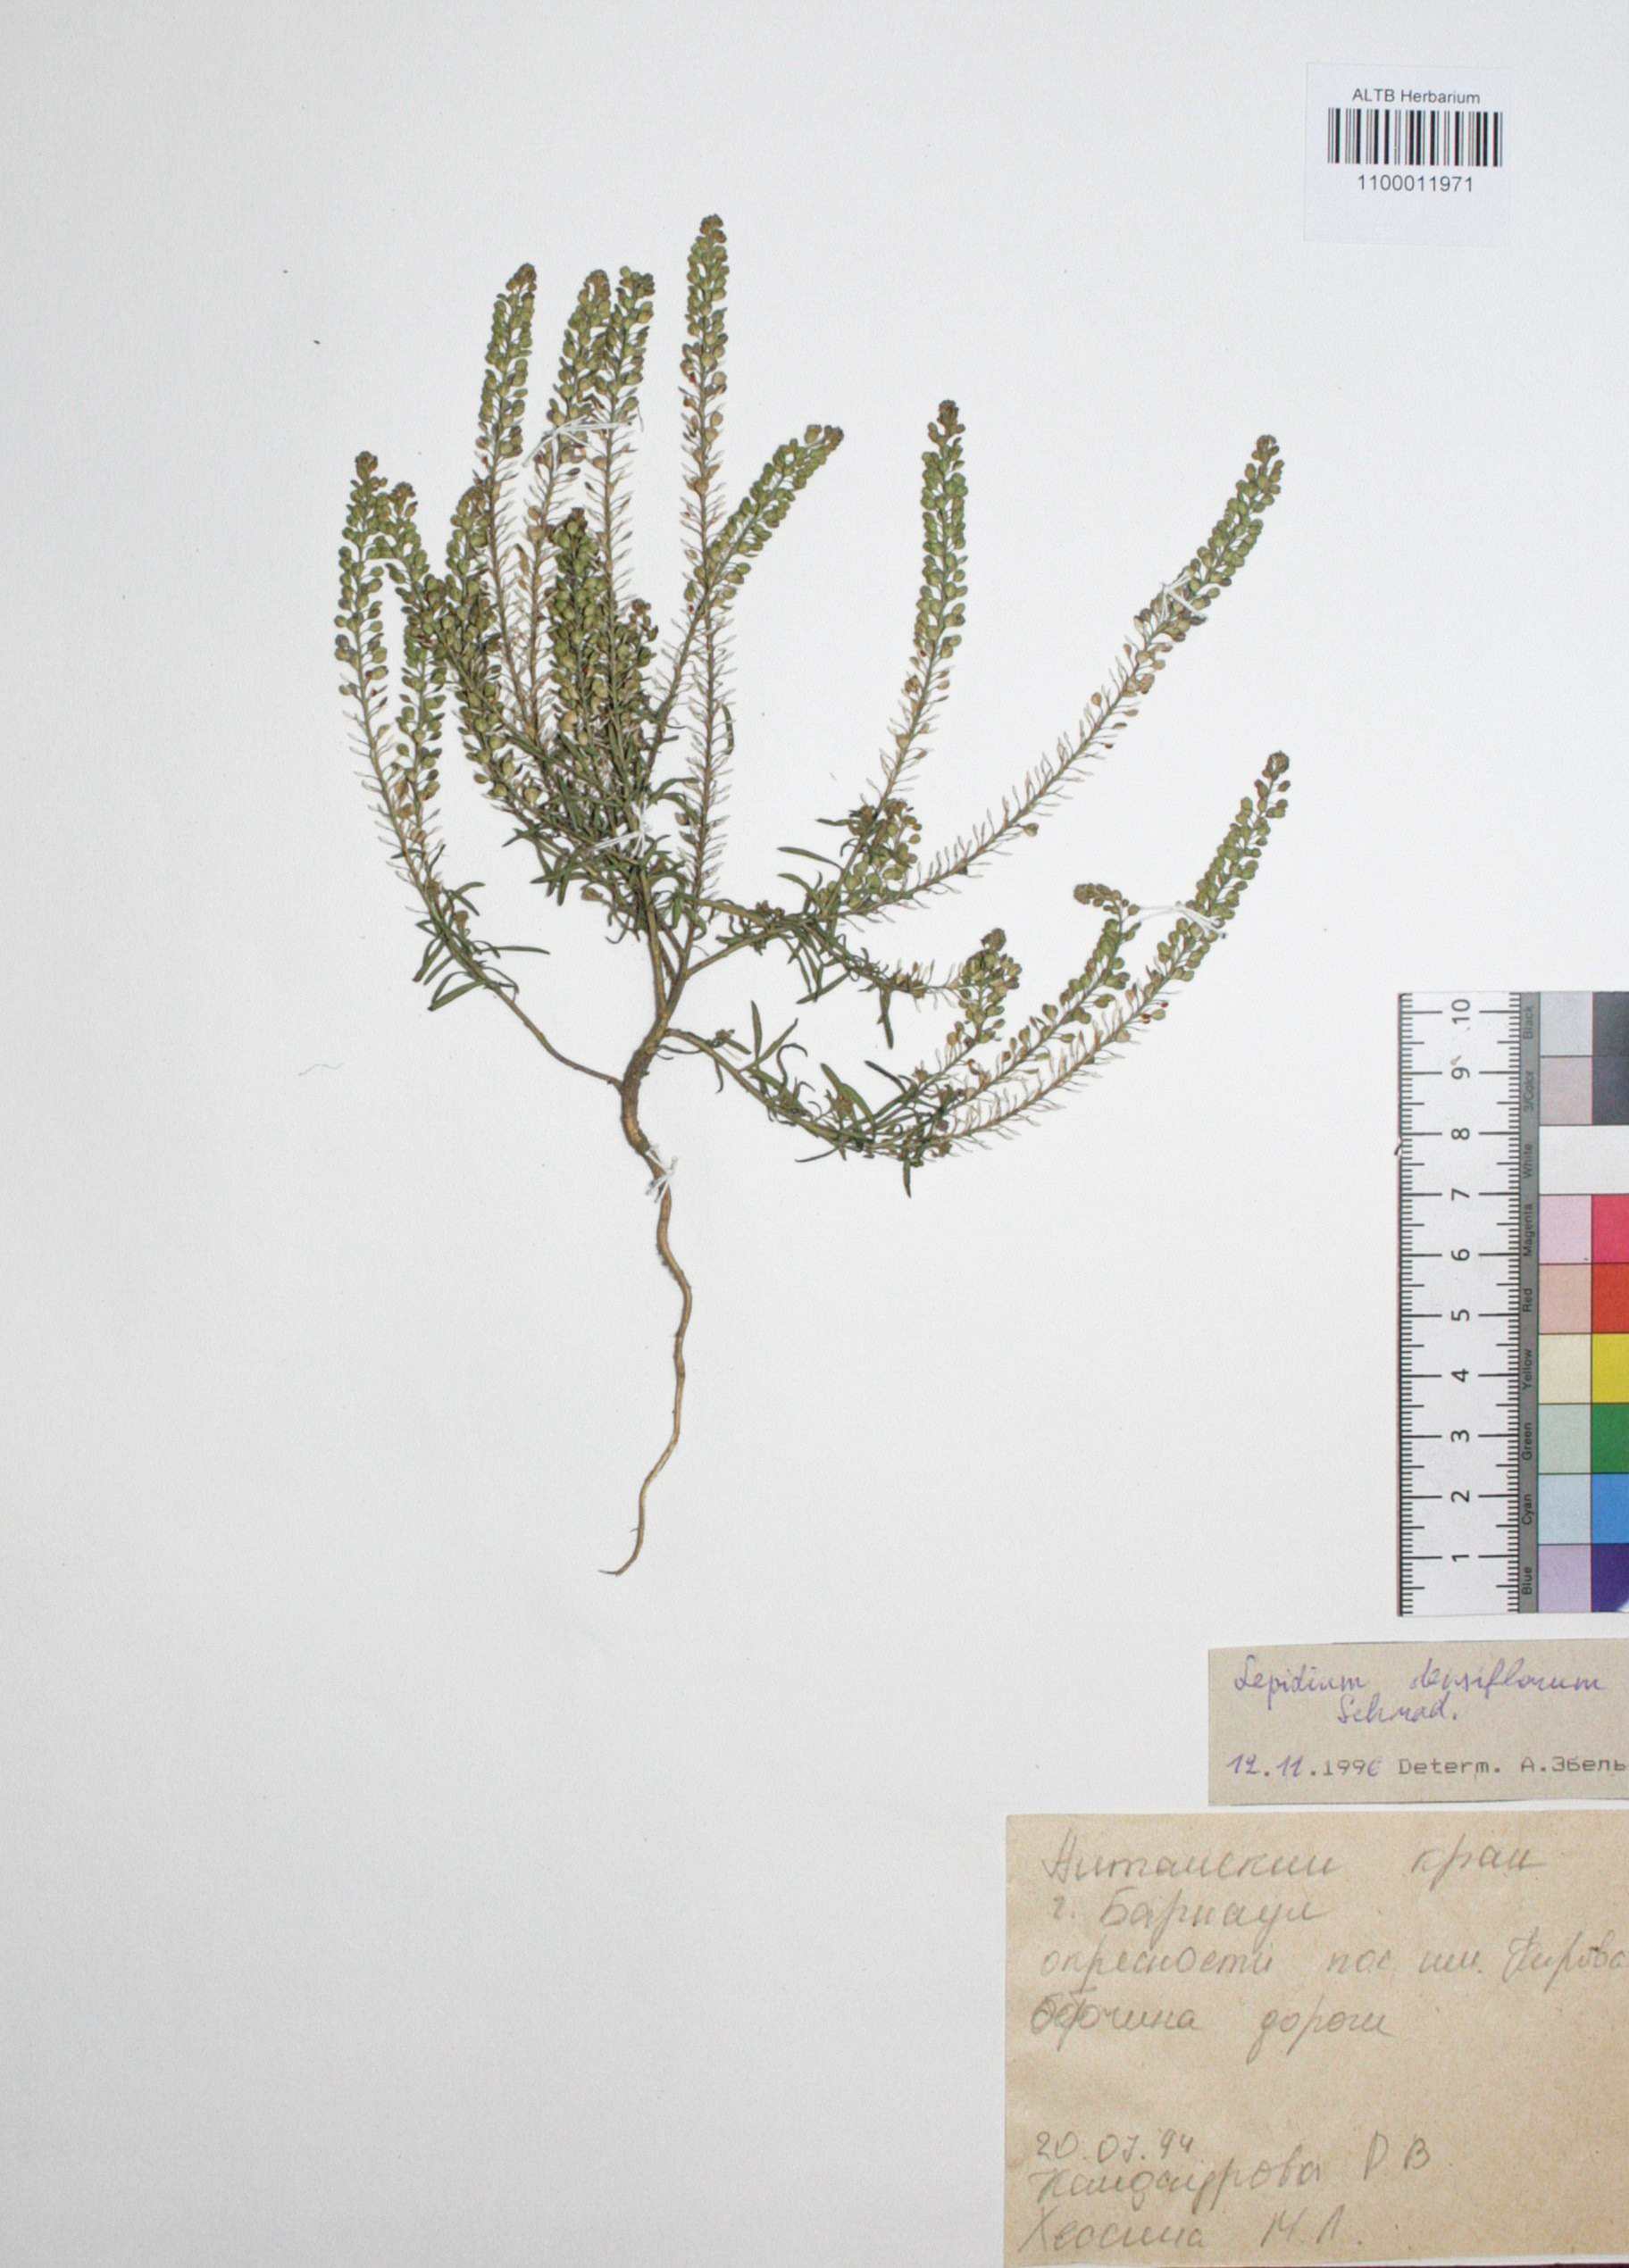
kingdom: Plantae
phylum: Tracheophyta
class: Magnoliopsida
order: Brassicales
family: Brassicaceae
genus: Lepidium
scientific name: Lepidium densiflorum
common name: Miner's pepperwort
